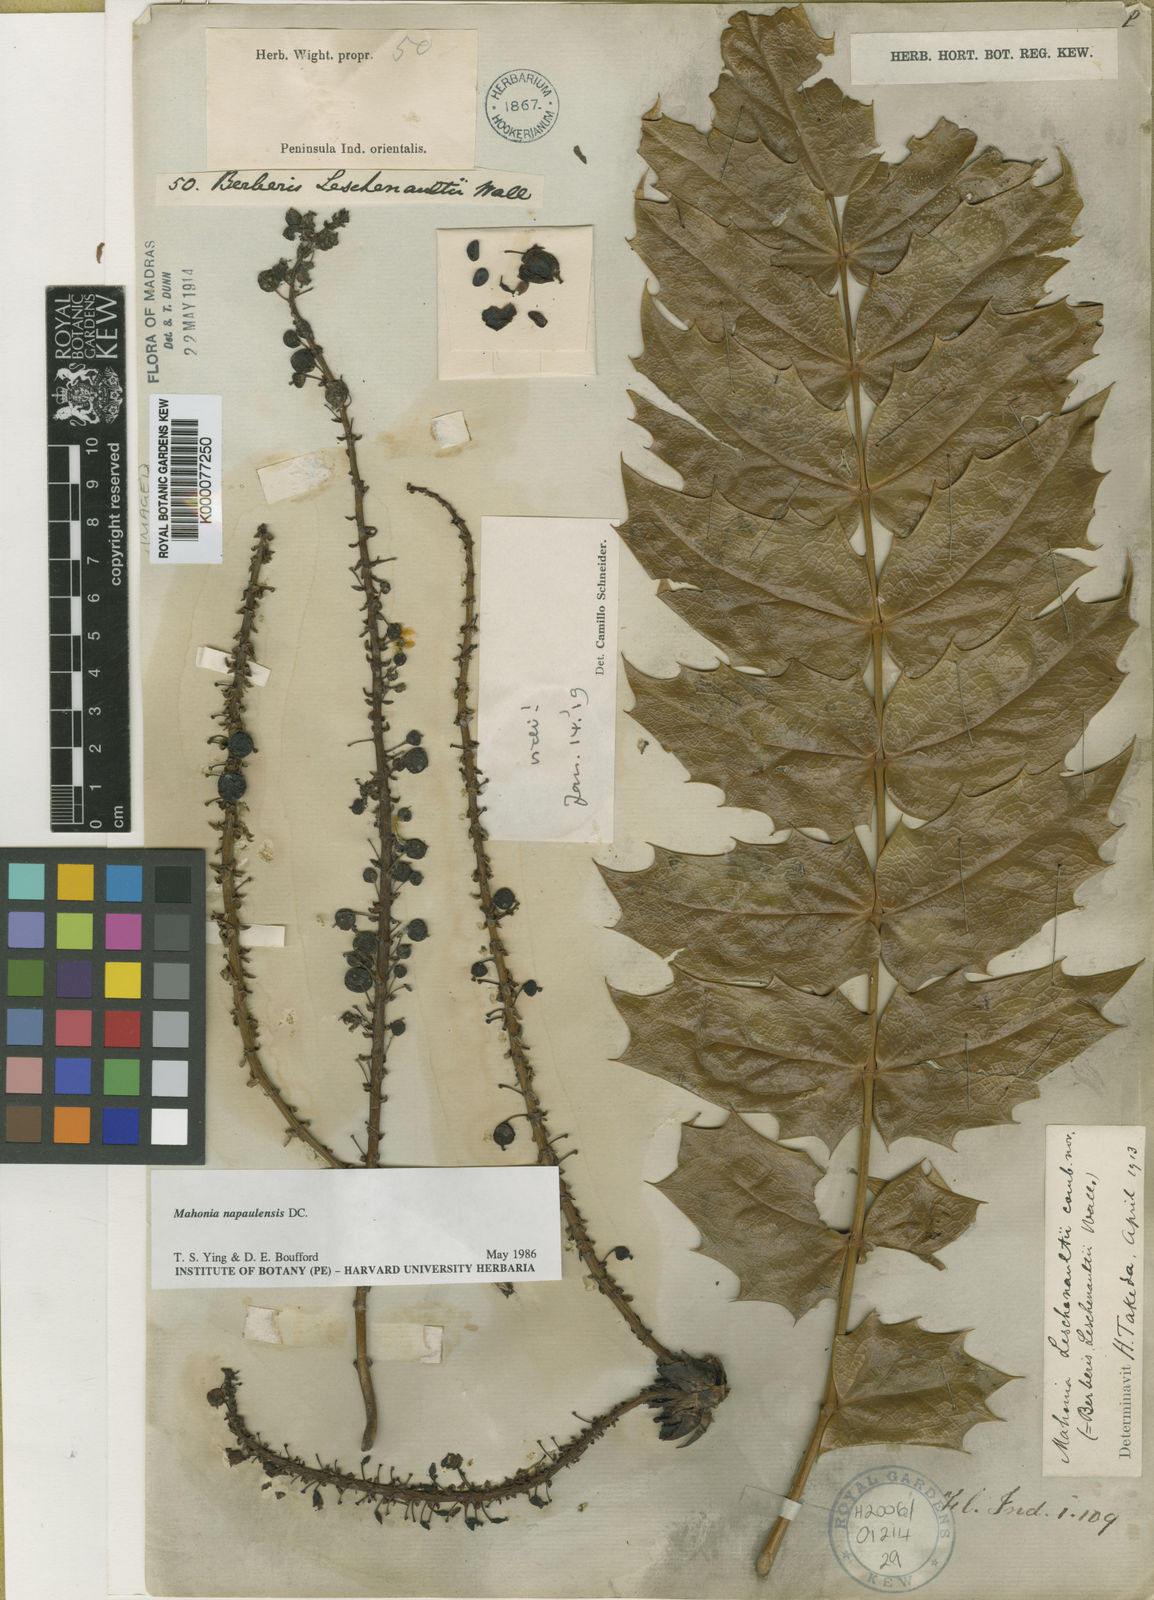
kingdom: Plantae
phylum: Tracheophyta
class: Magnoliopsida
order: Ranunculales
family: Berberidaceae
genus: Mahonia
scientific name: Mahonia
